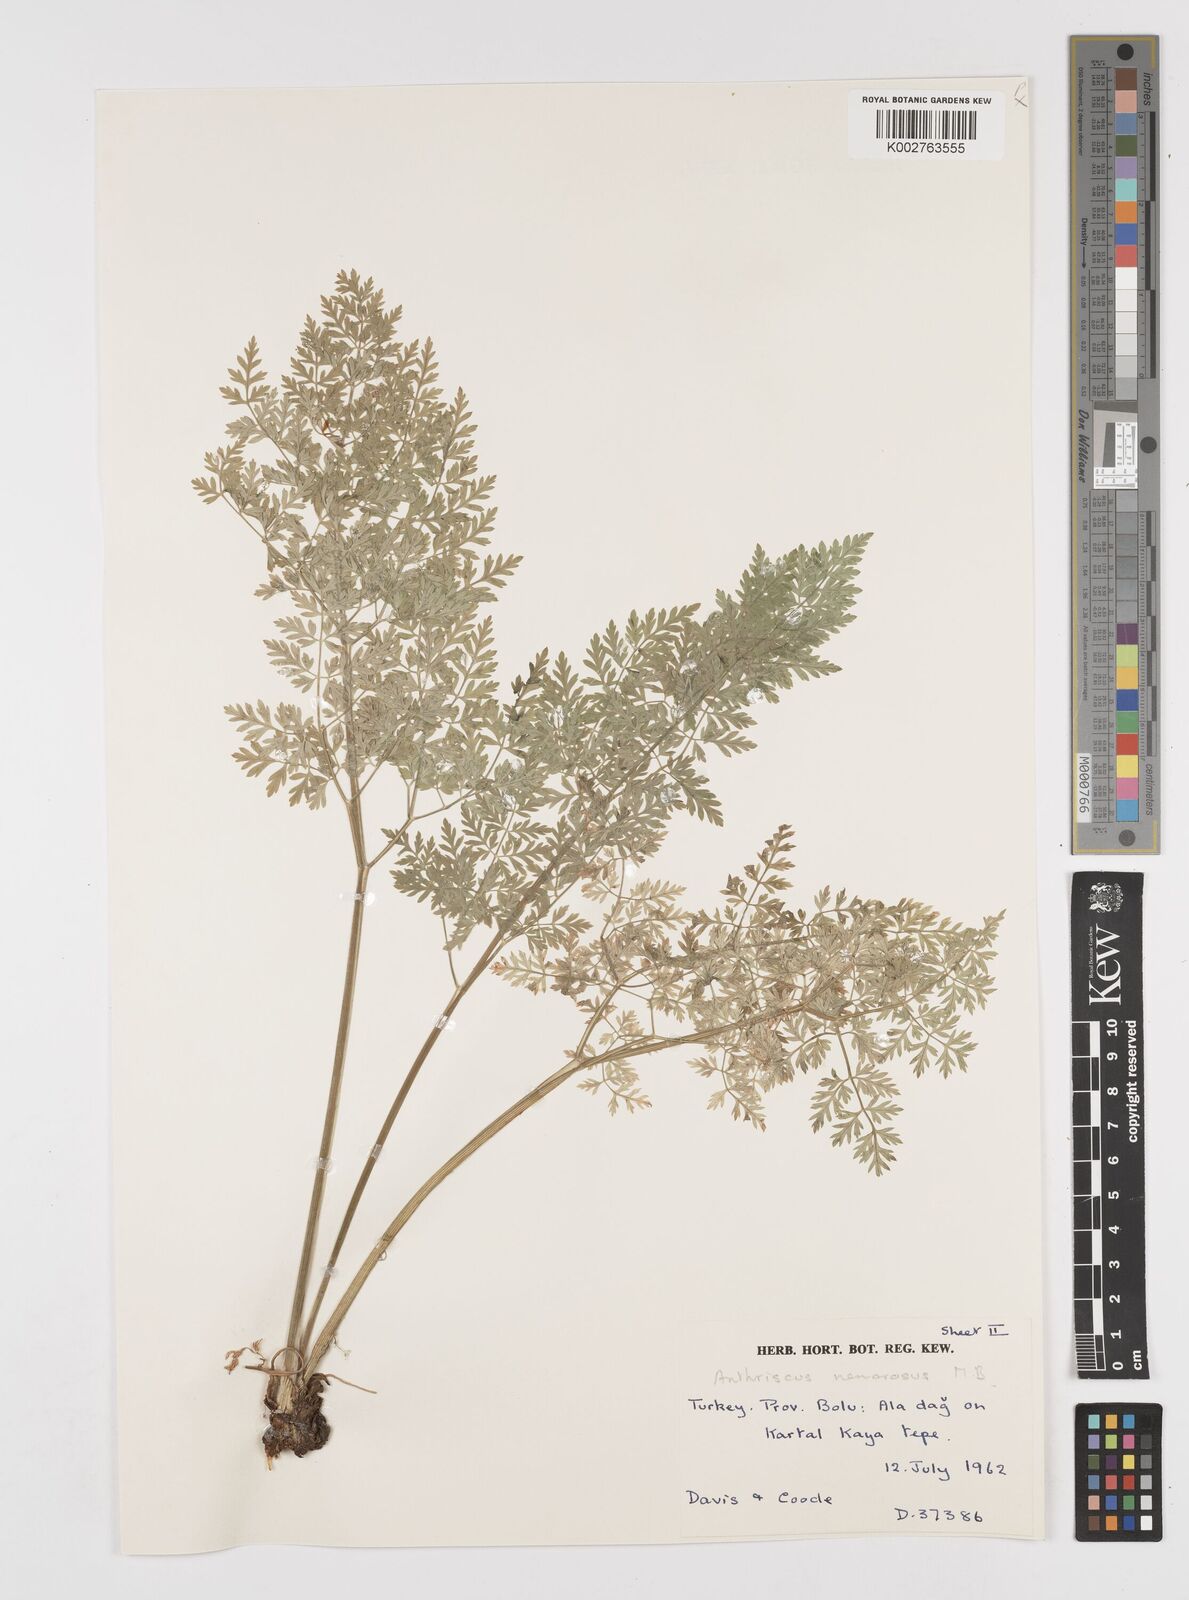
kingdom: Plantae
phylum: Tracheophyta
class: Magnoliopsida
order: Apiales
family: Apiaceae
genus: Anthriscus
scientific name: Anthriscus sylvestris
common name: Cow parsley
